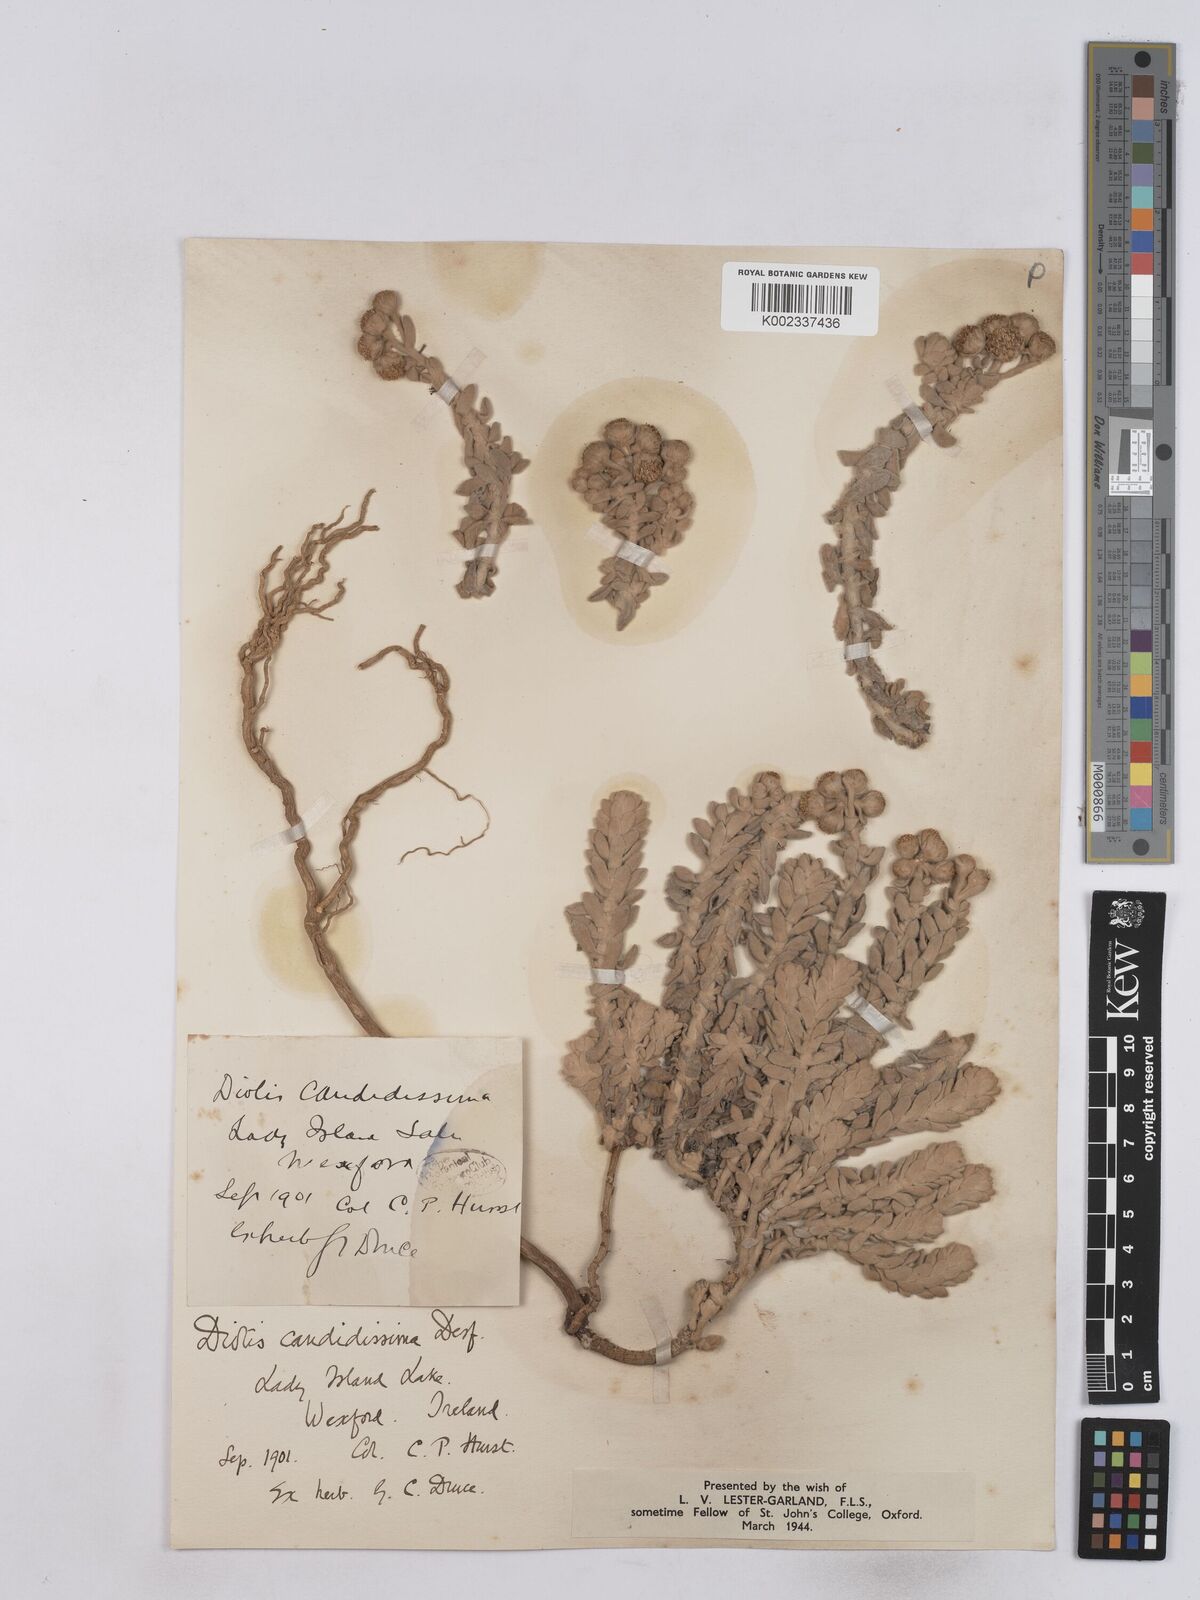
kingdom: Plantae
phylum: Tracheophyta
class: Magnoliopsida
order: Asterales
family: Asteraceae
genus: Achillea
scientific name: Achillea maritima
